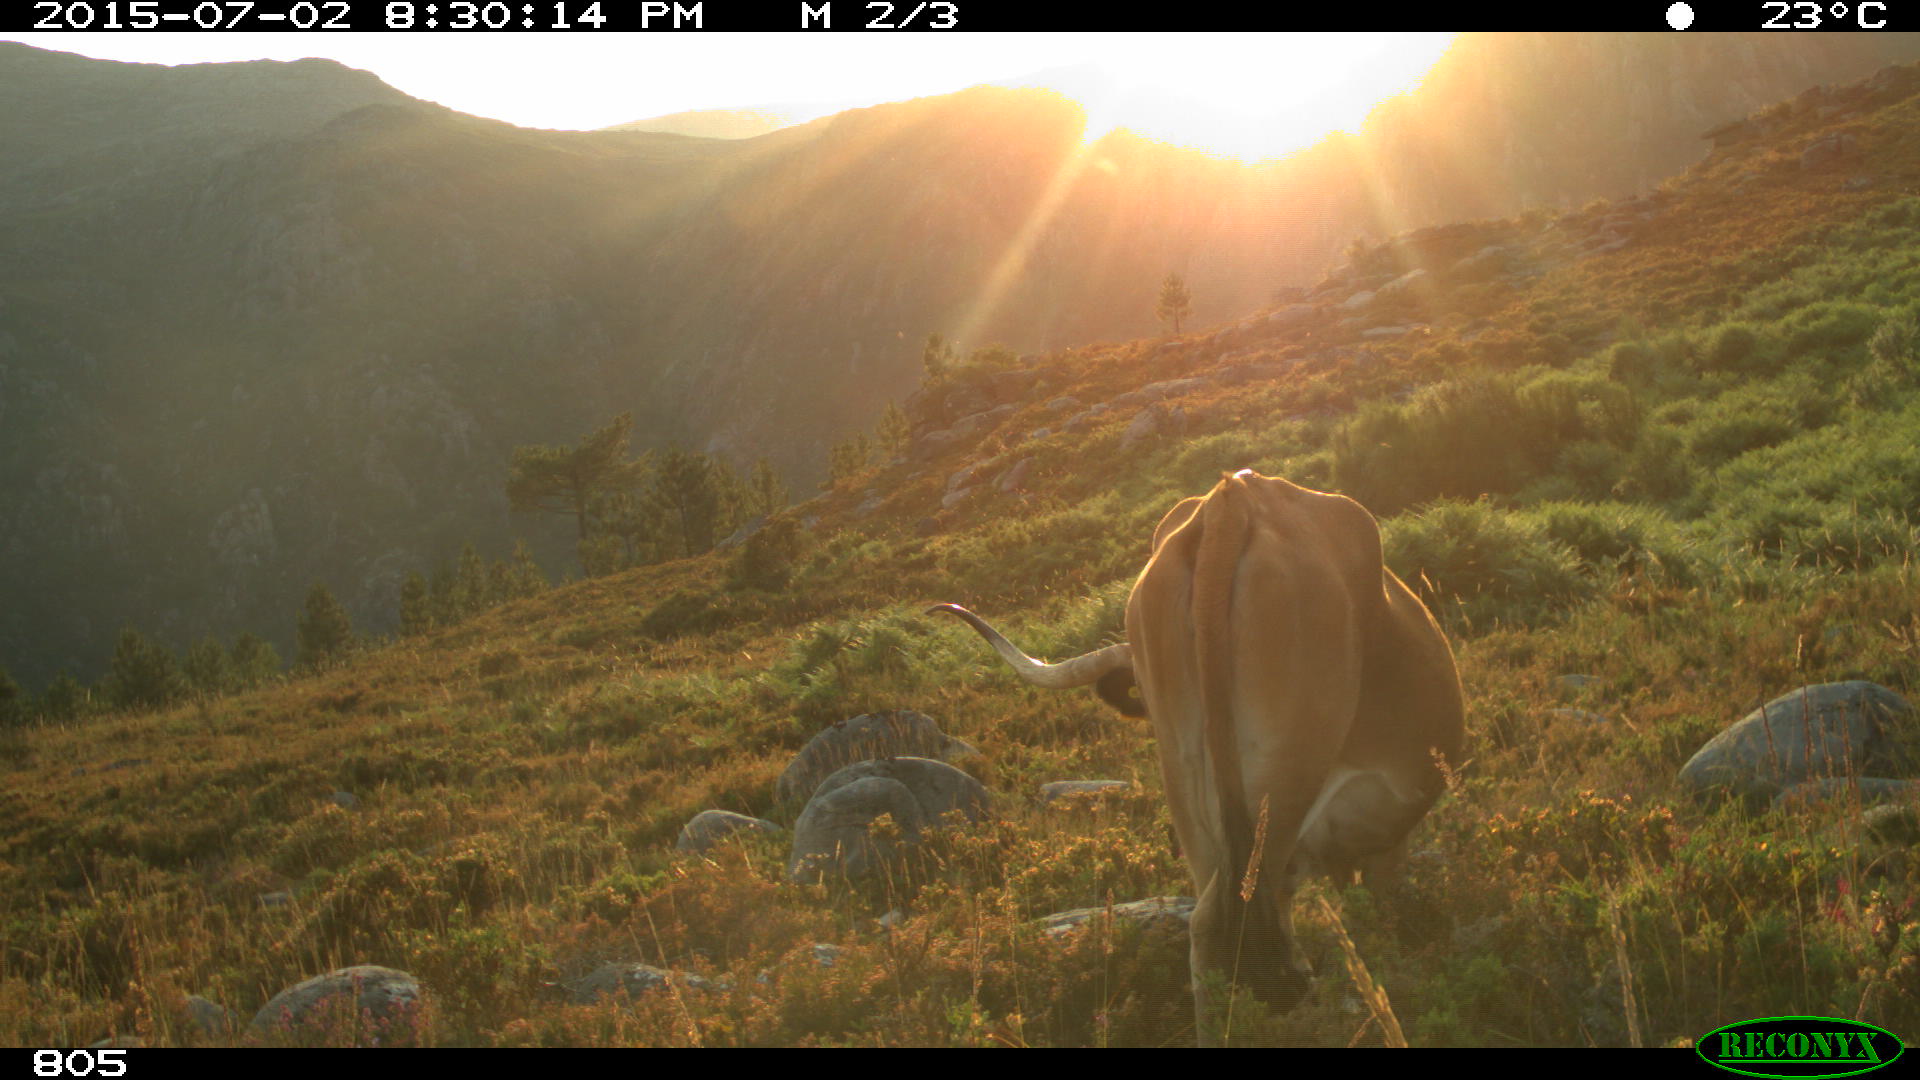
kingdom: Animalia
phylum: Chordata
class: Mammalia
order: Artiodactyla
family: Bovidae
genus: Bos
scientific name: Bos taurus
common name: Domesticated cattle
